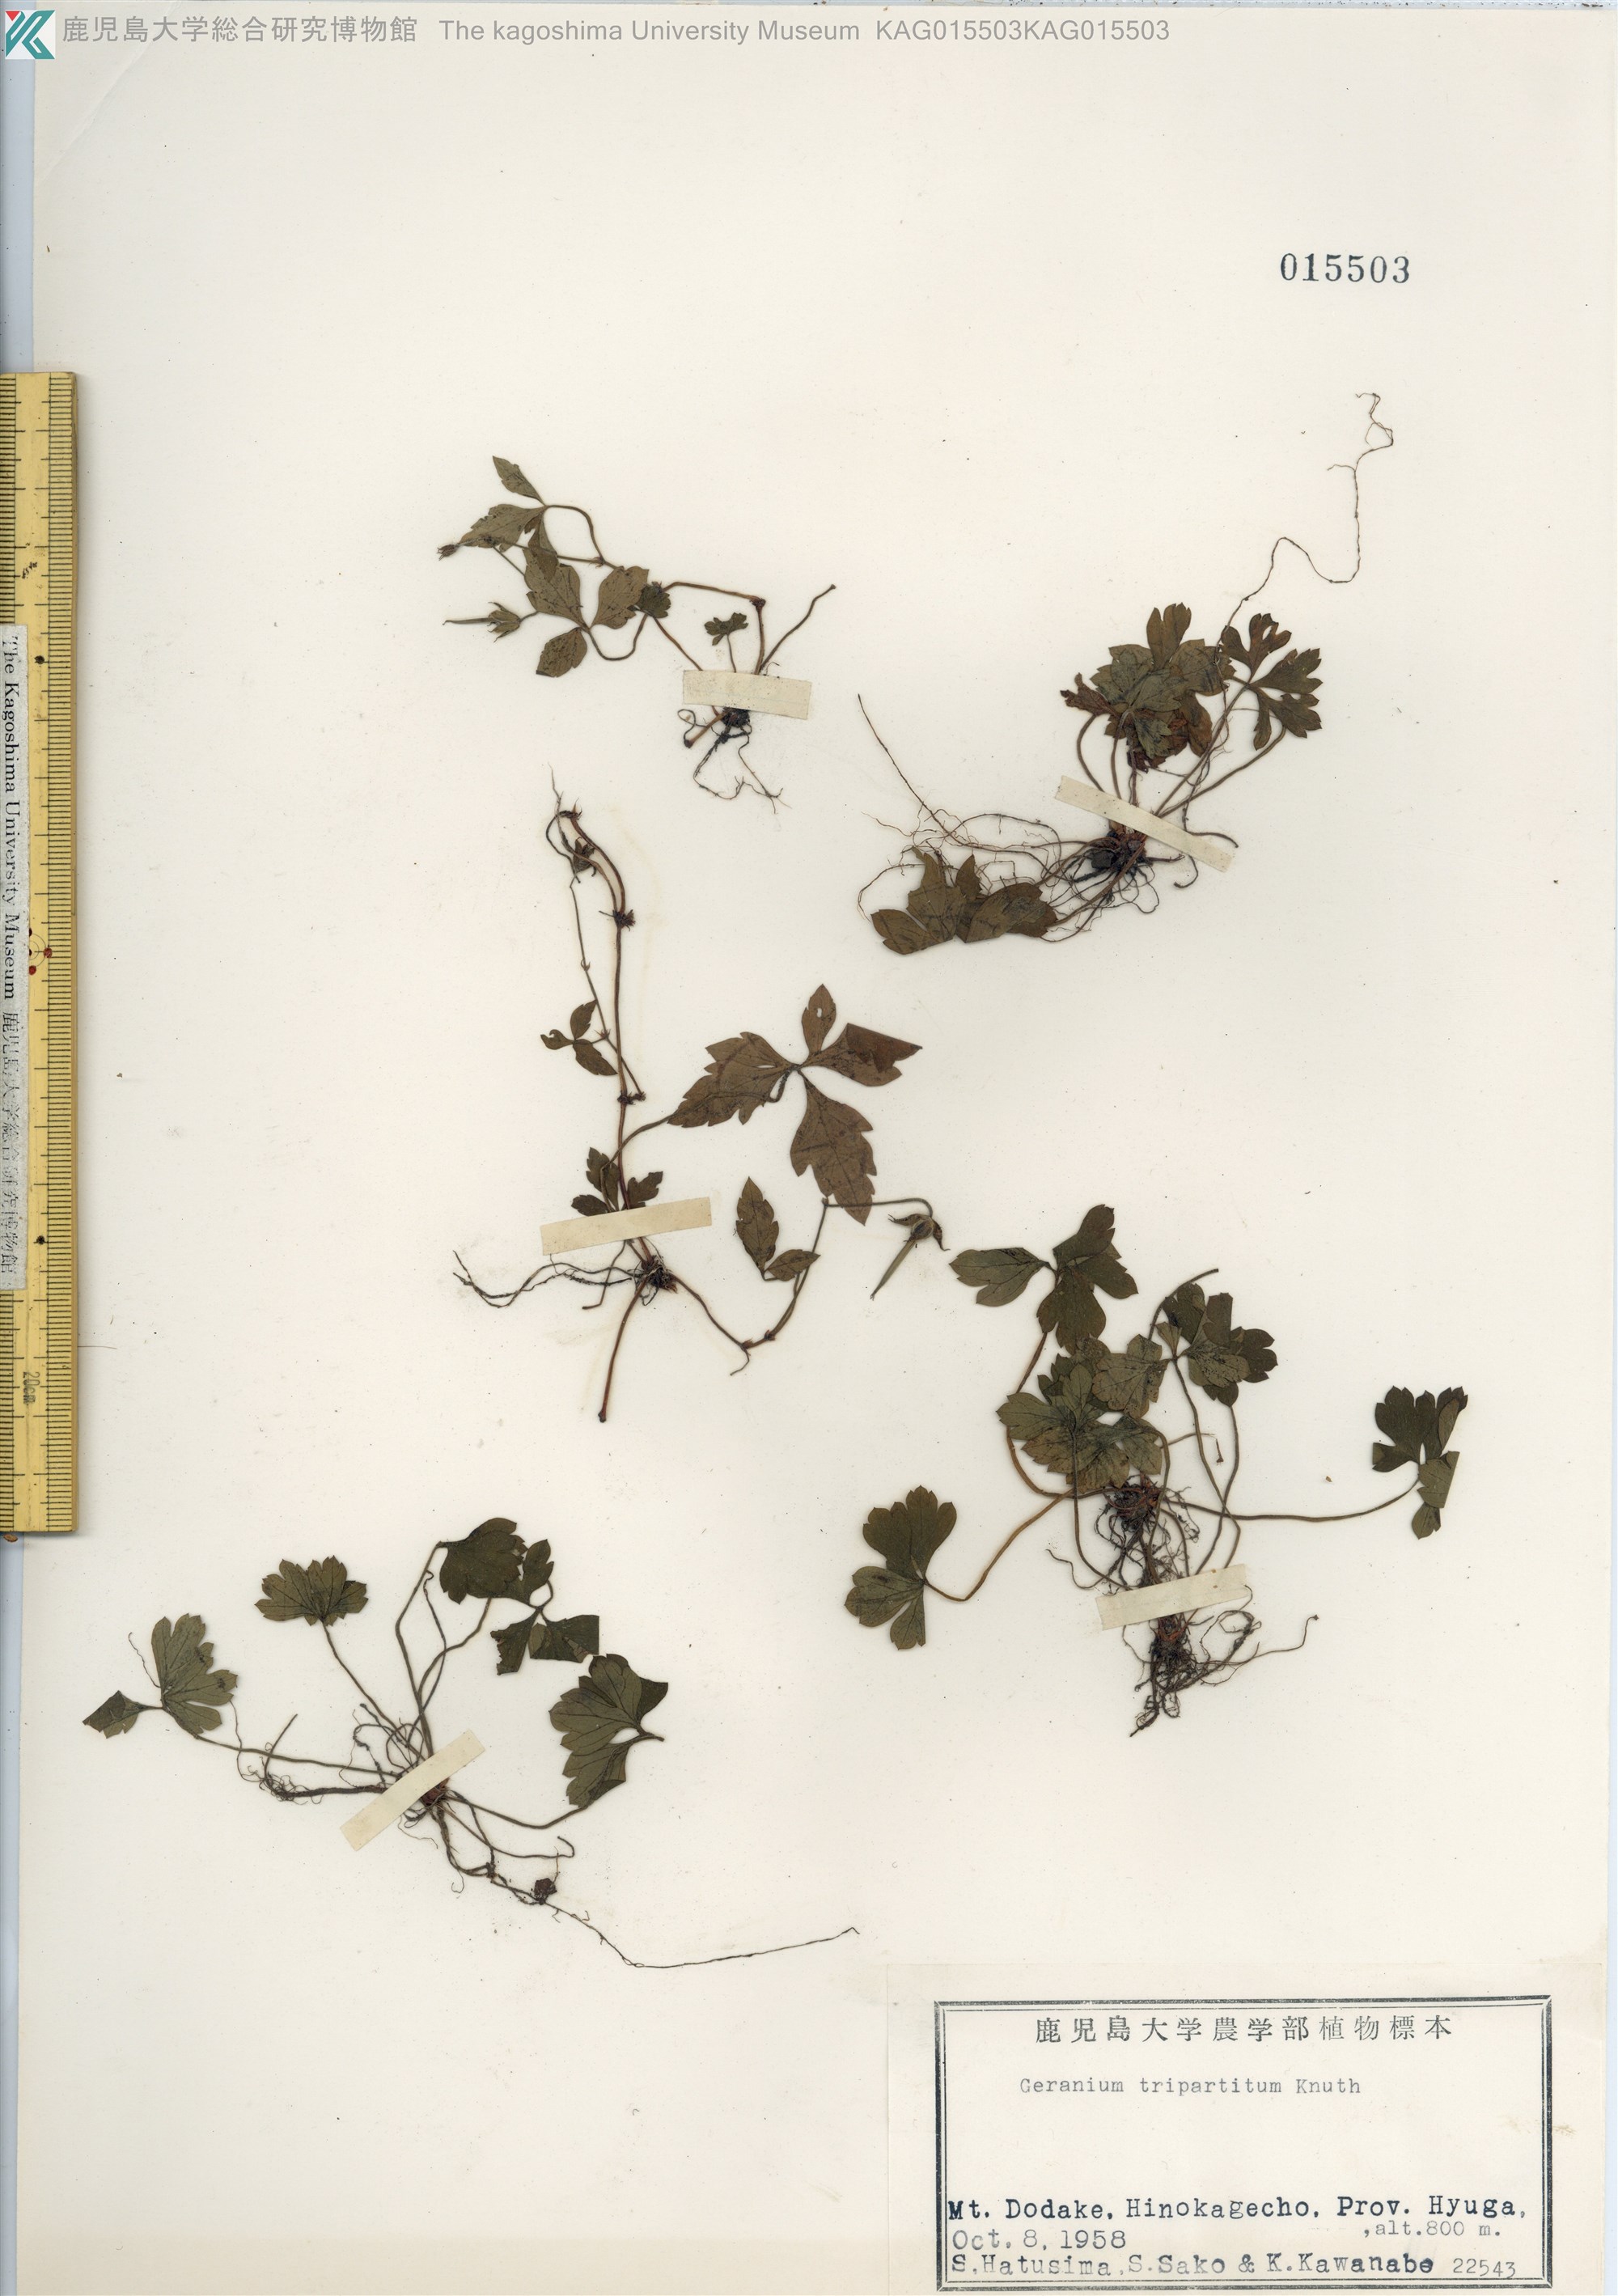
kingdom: Plantae
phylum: Tracheophyta
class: Magnoliopsida
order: Geraniales
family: Geraniaceae
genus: Geranium
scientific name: Geranium tripartitum
